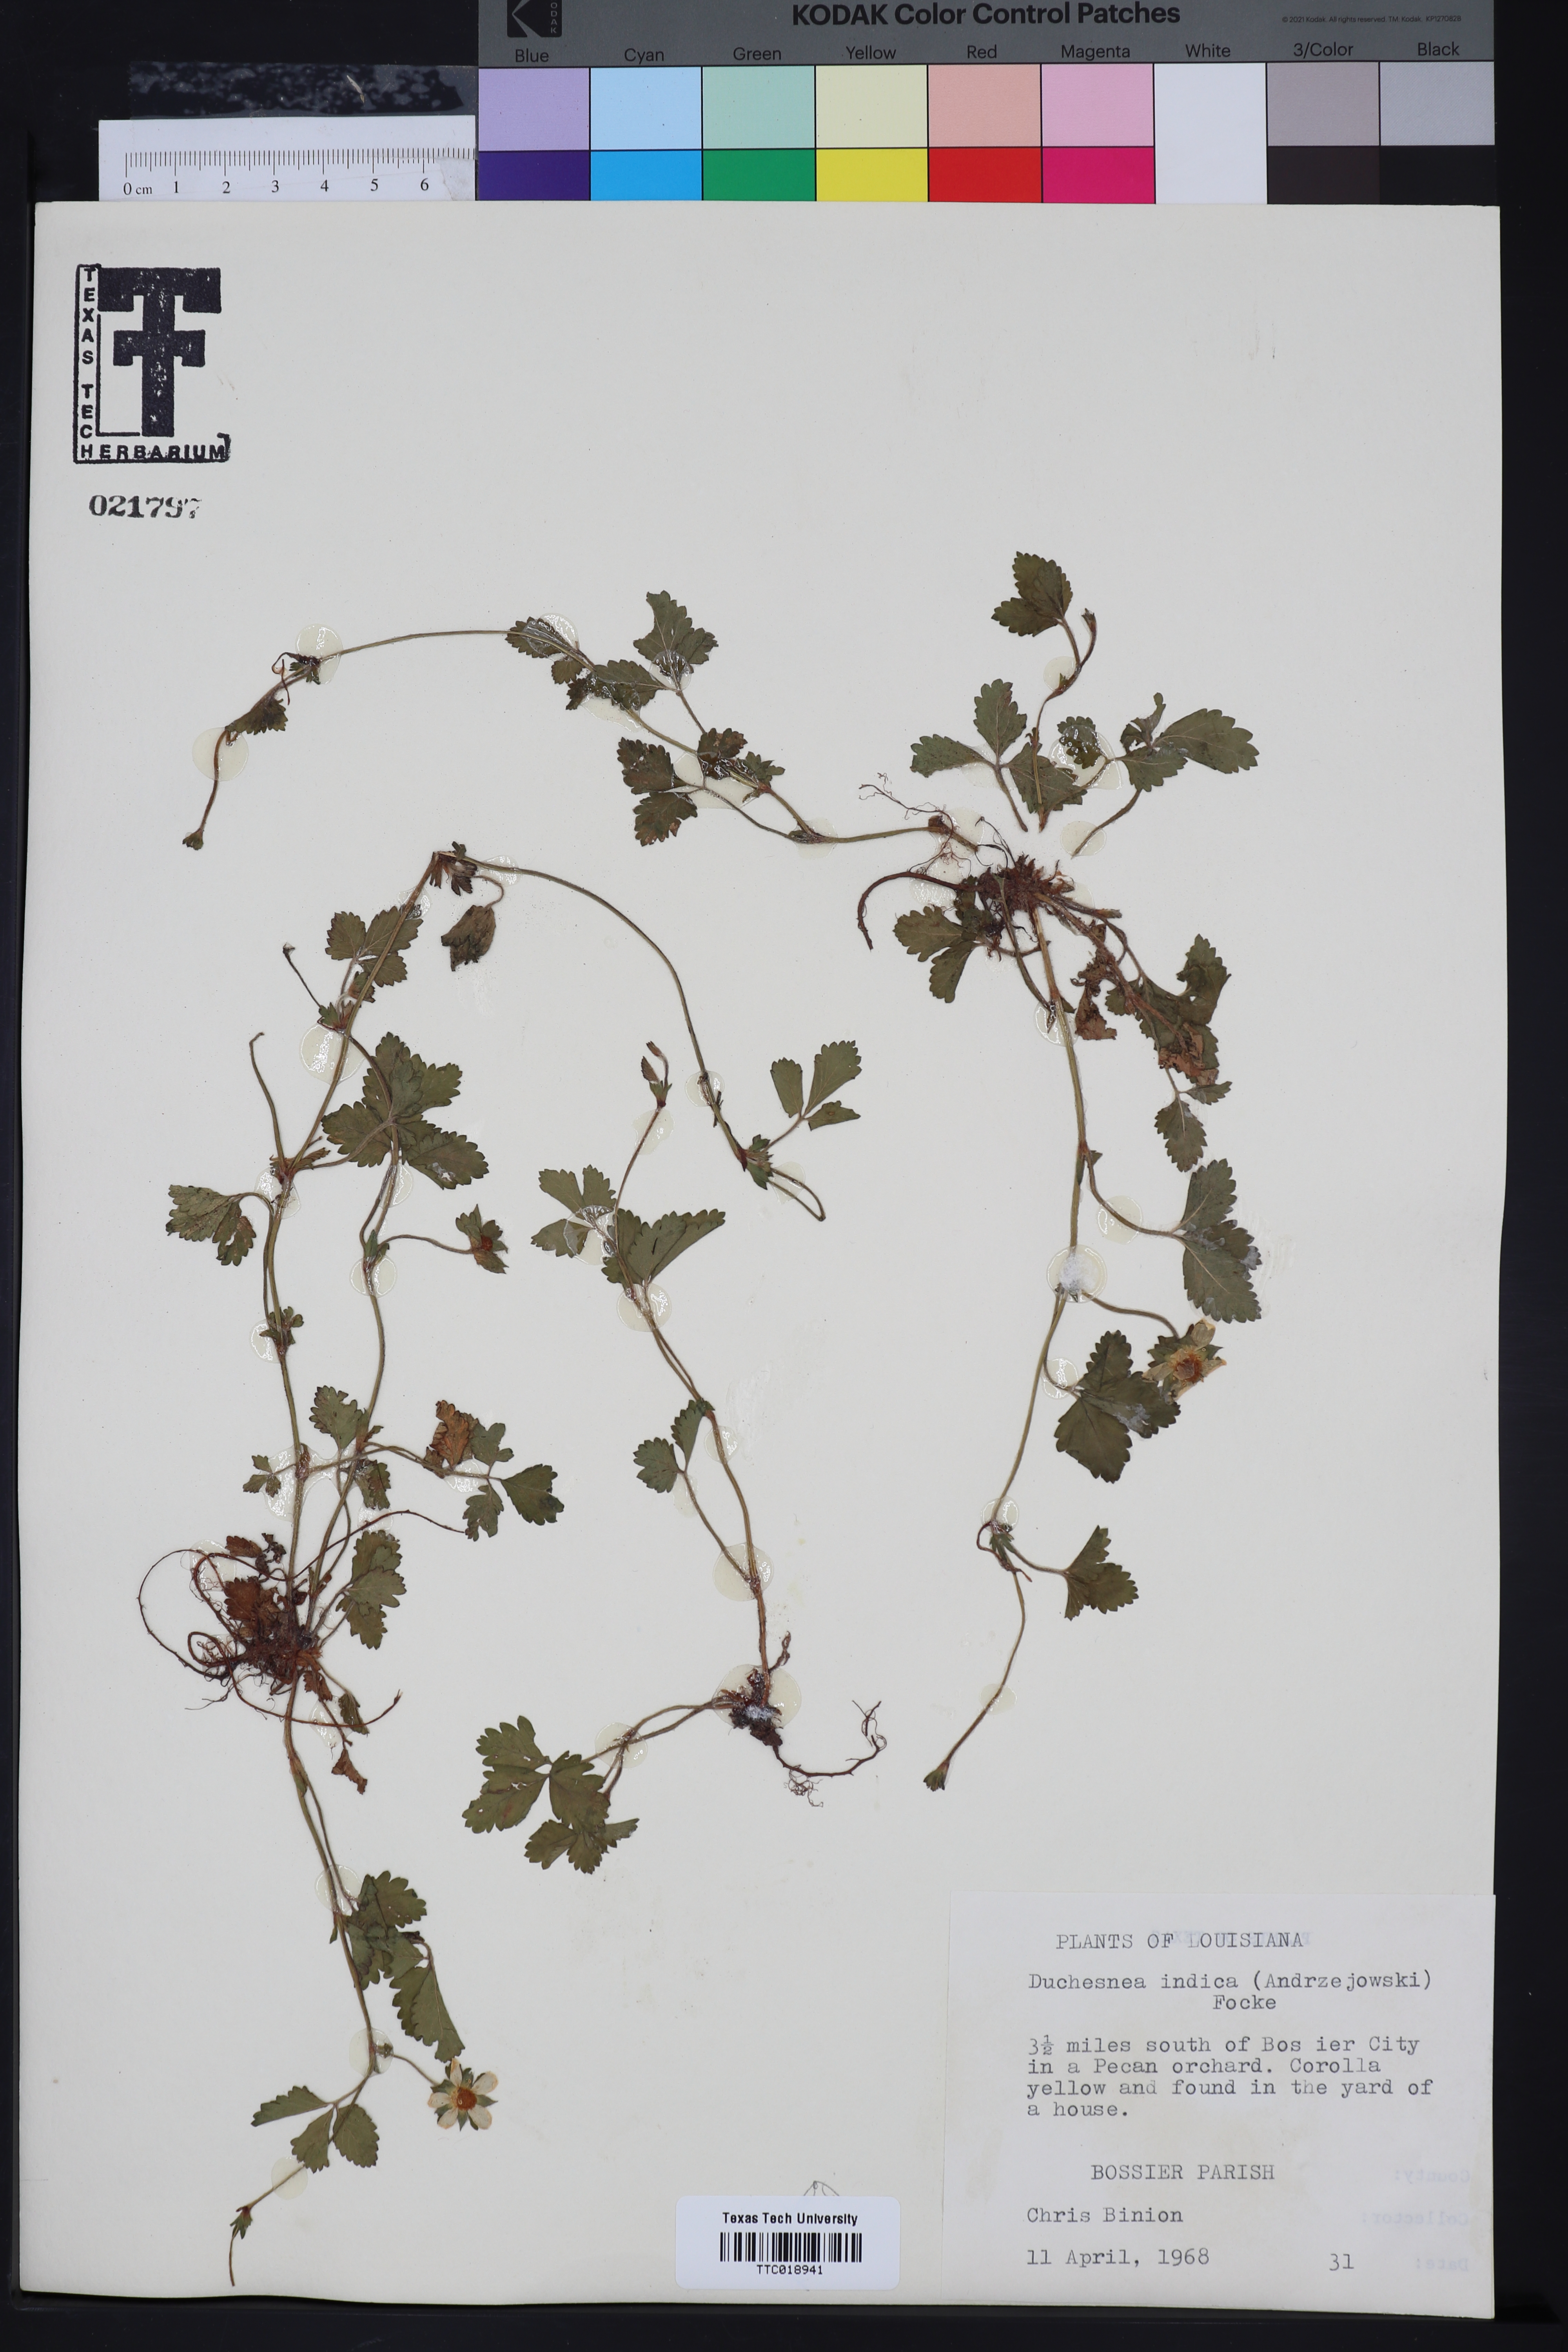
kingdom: Plantae
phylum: Tracheophyta
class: Magnoliopsida
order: Rosales
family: Rosaceae
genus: Potentilla
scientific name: Potentilla indica
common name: Yellow-flowered strawberry
